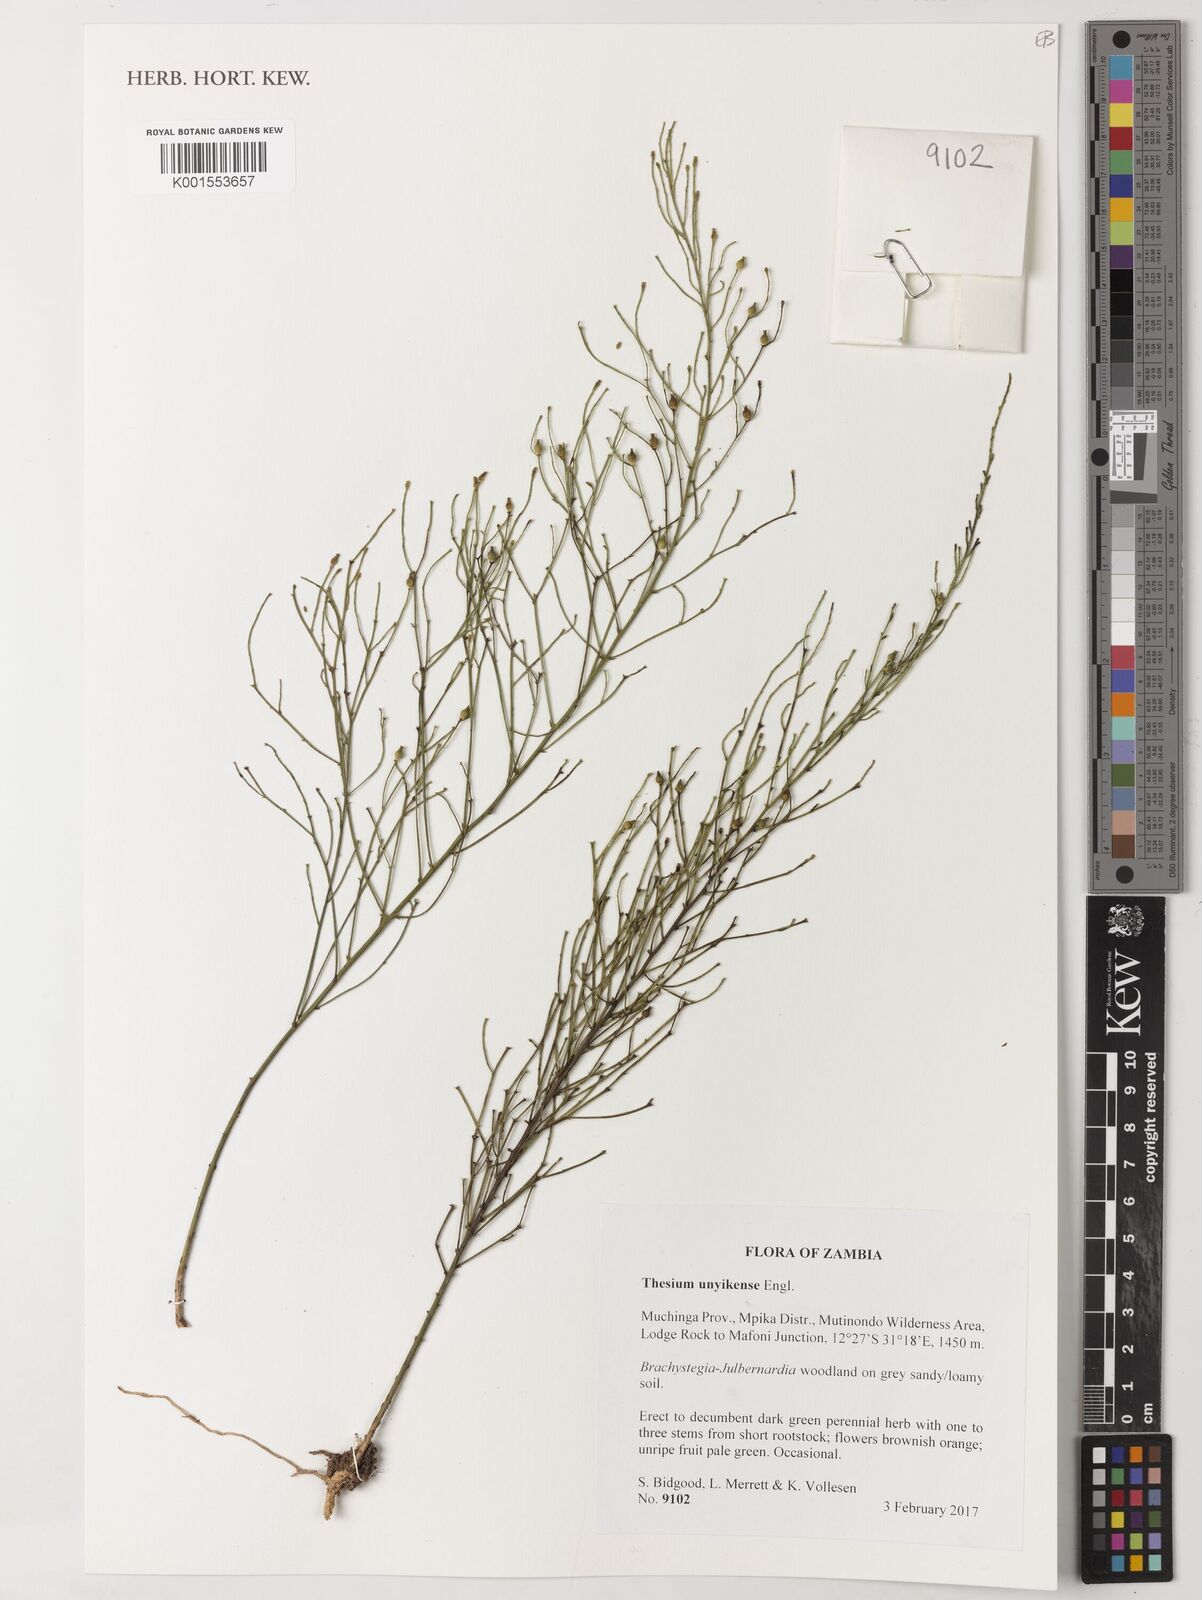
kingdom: Plantae
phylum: Tracheophyta
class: Magnoliopsida
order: Santalales
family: Thesiaceae
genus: Thesium
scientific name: Thesium unyikense
